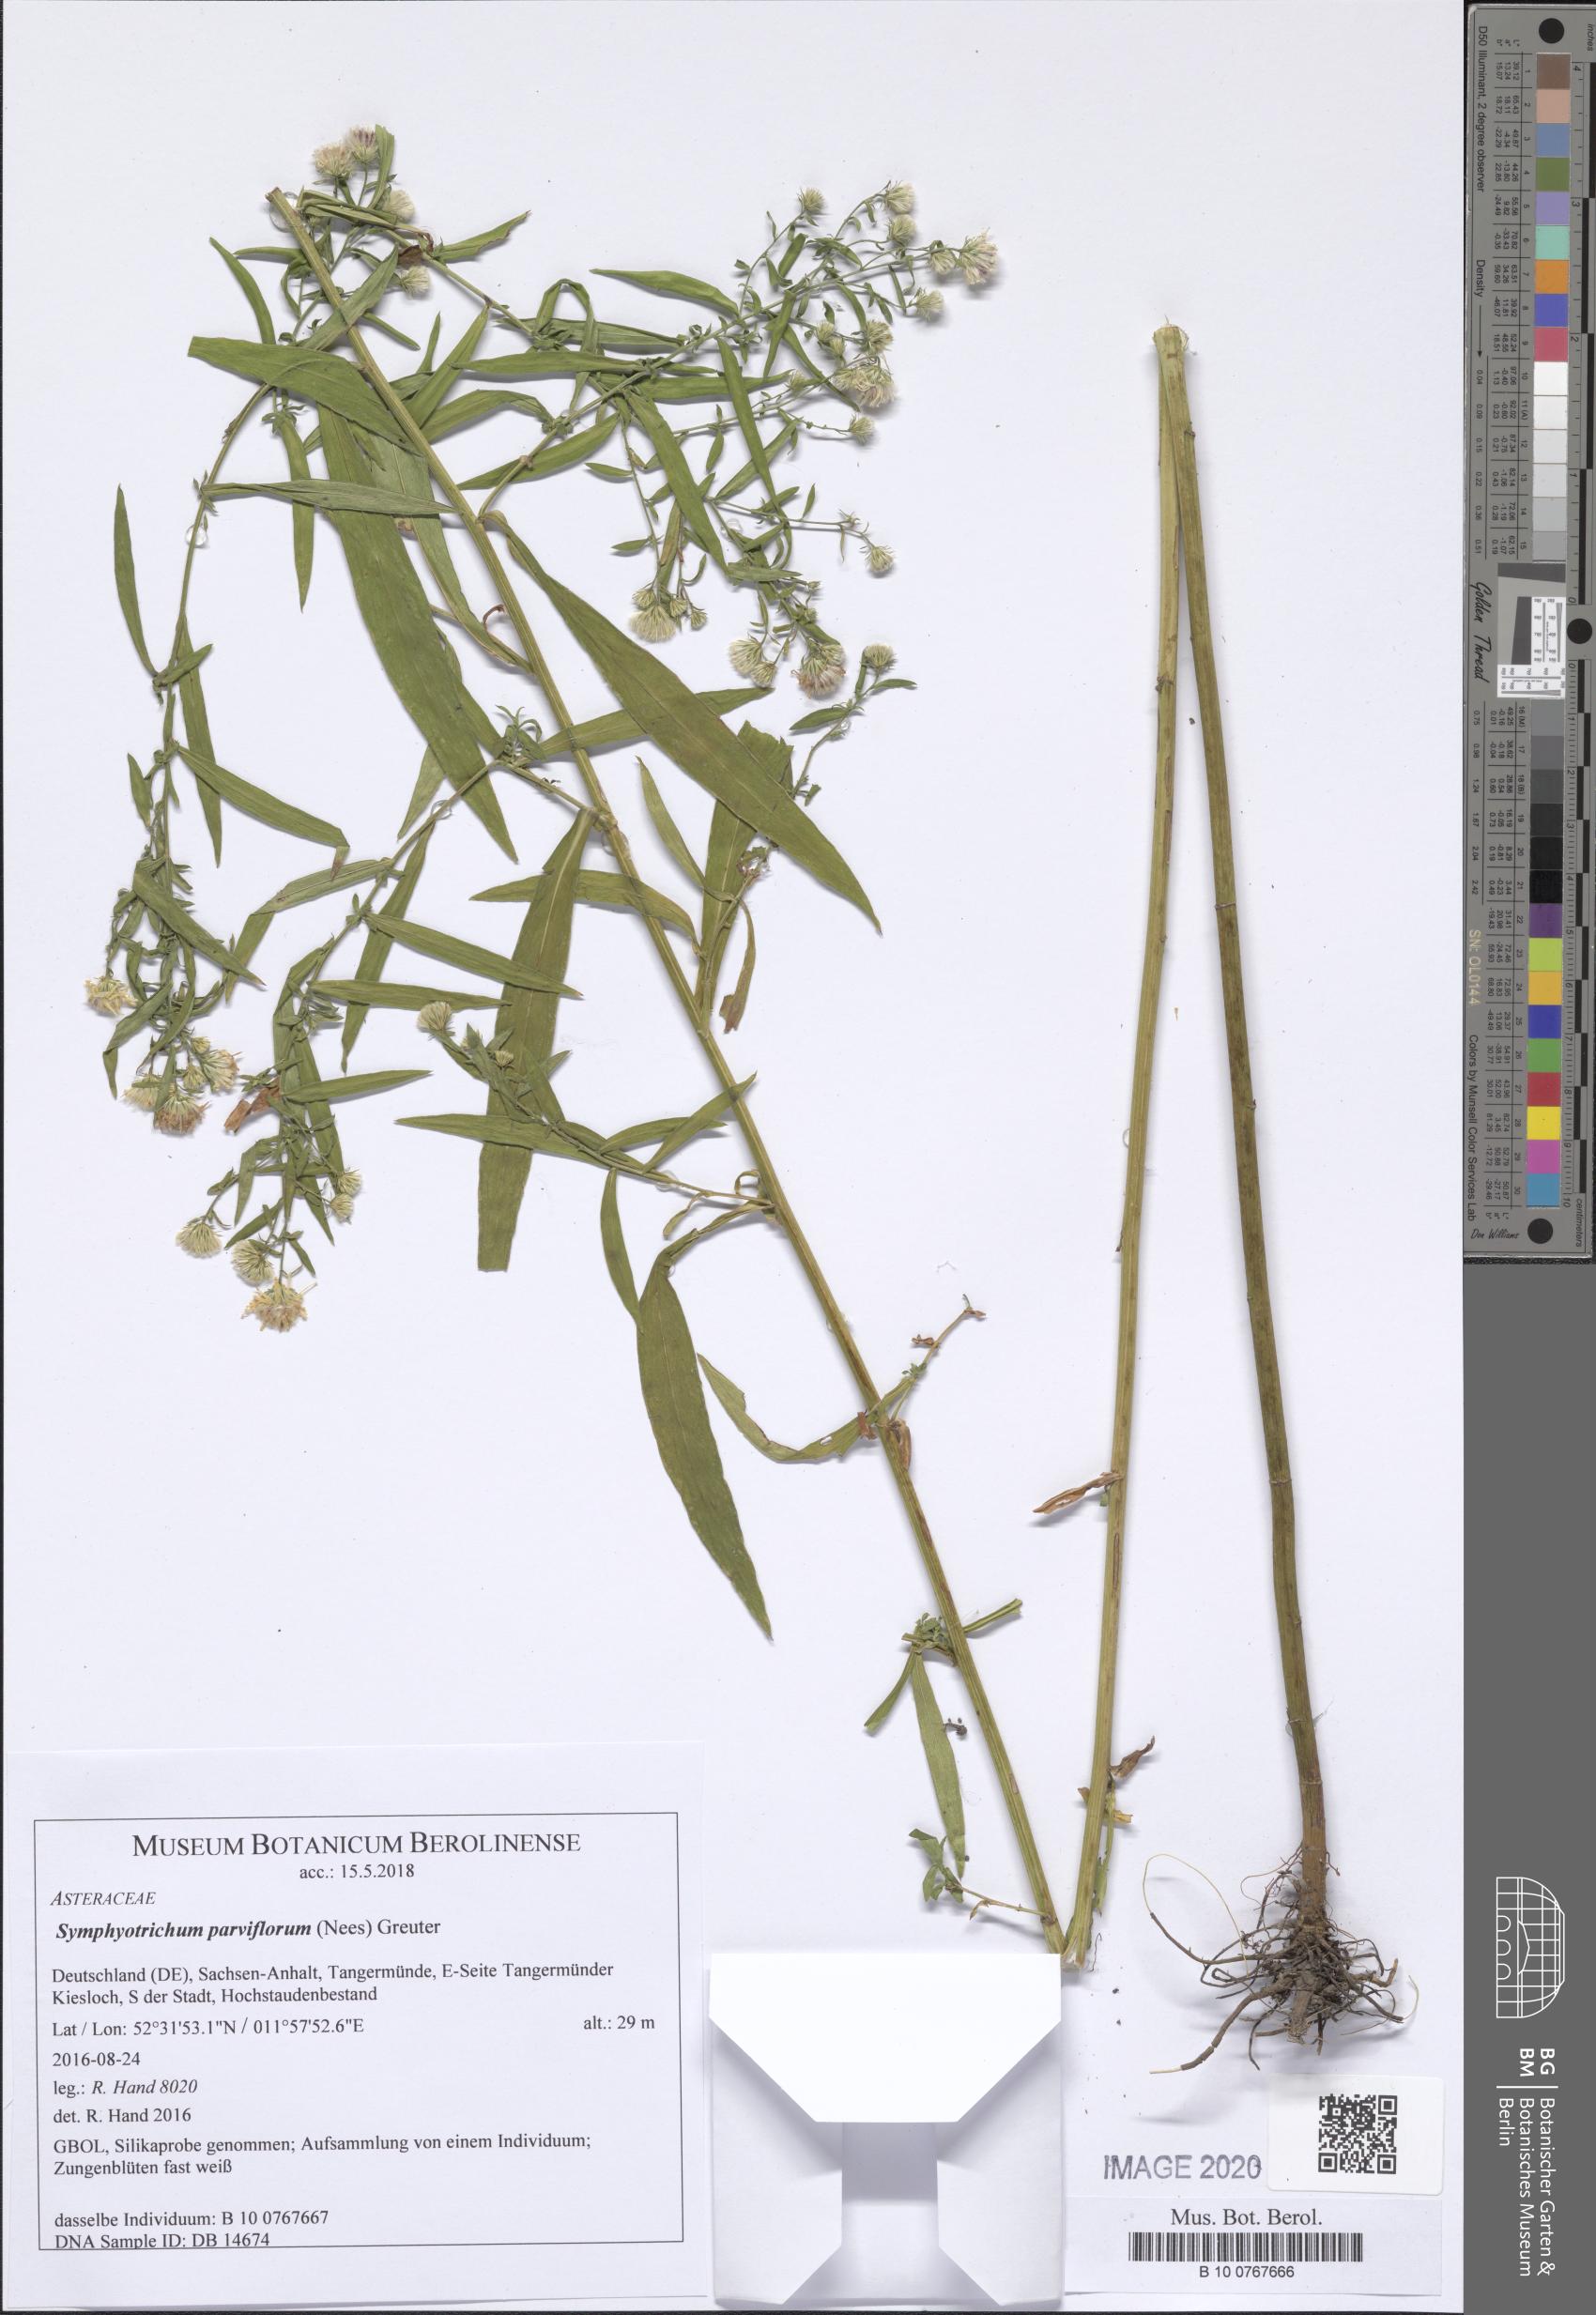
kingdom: Plantae
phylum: Tracheophyta
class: Magnoliopsida
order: Asterales
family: Asteraceae
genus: Symphyotrichum
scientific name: Symphyotrichum expansum
